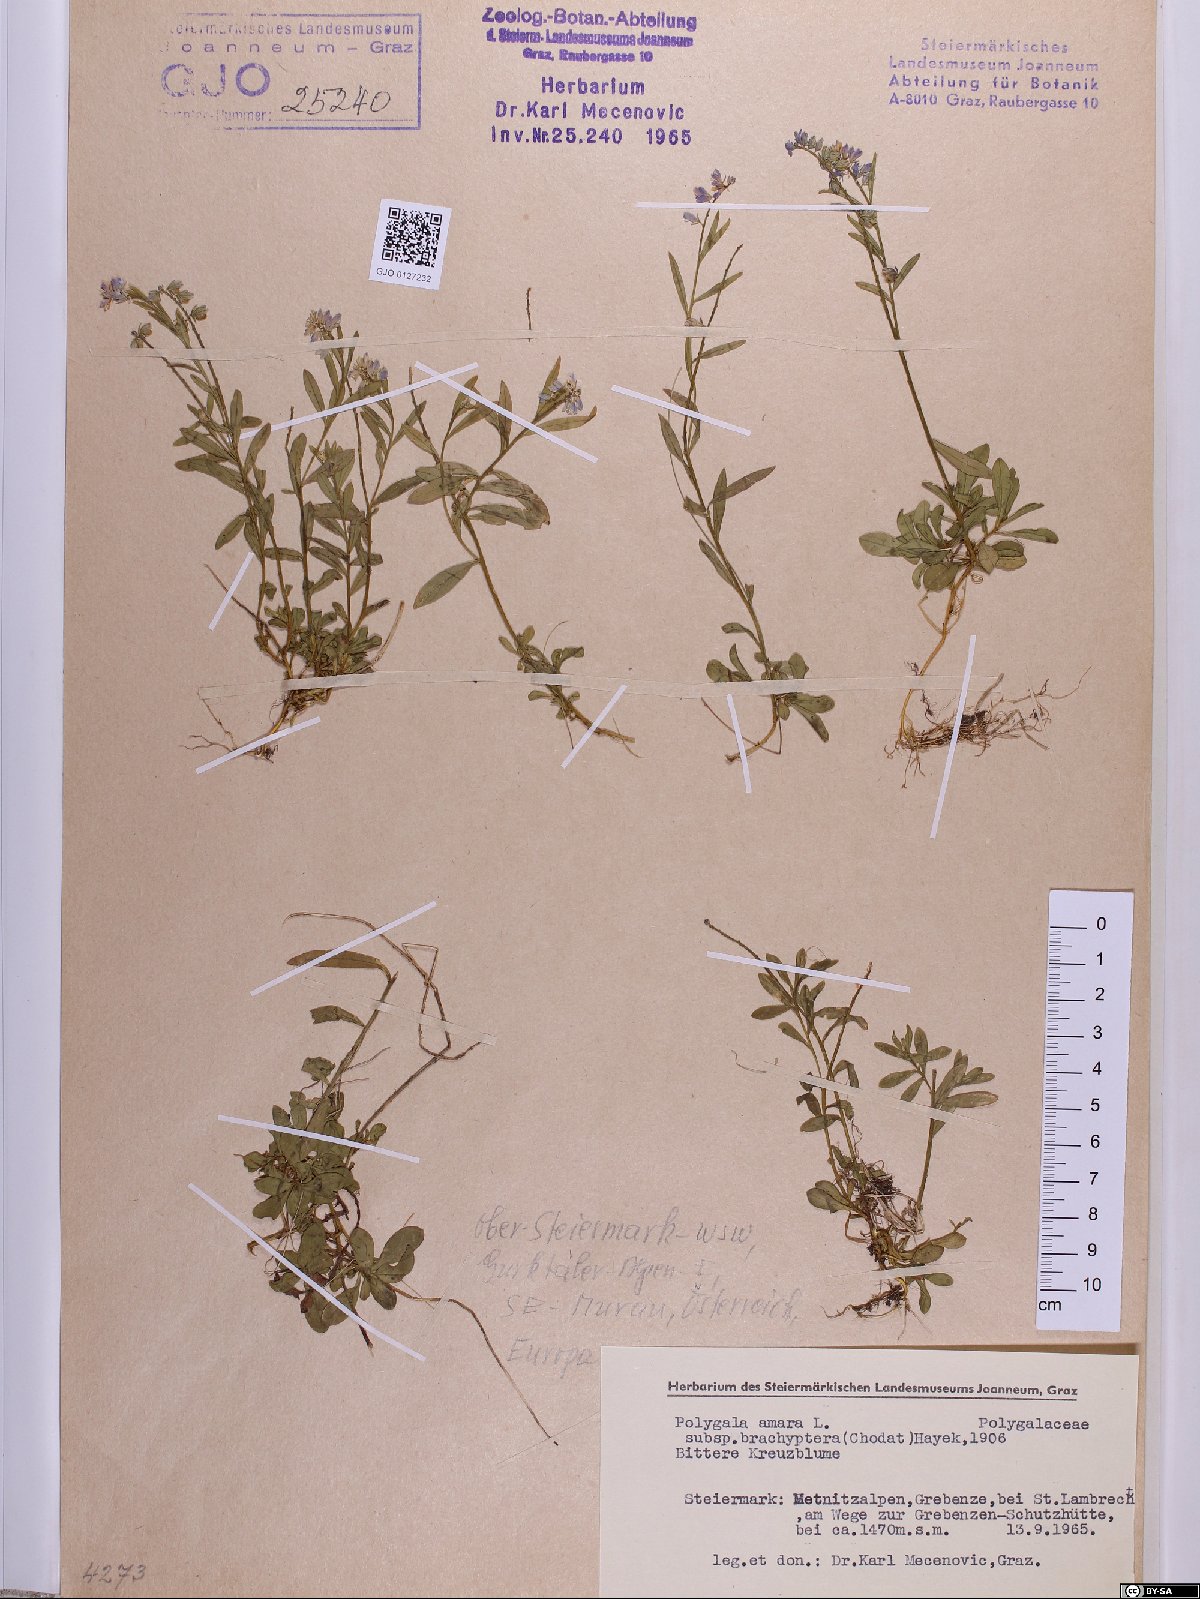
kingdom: Plantae
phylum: Tracheophyta
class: Magnoliopsida
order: Fabales
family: Polygalaceae
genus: Polygala
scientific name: Polygala amara
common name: Milkwort
